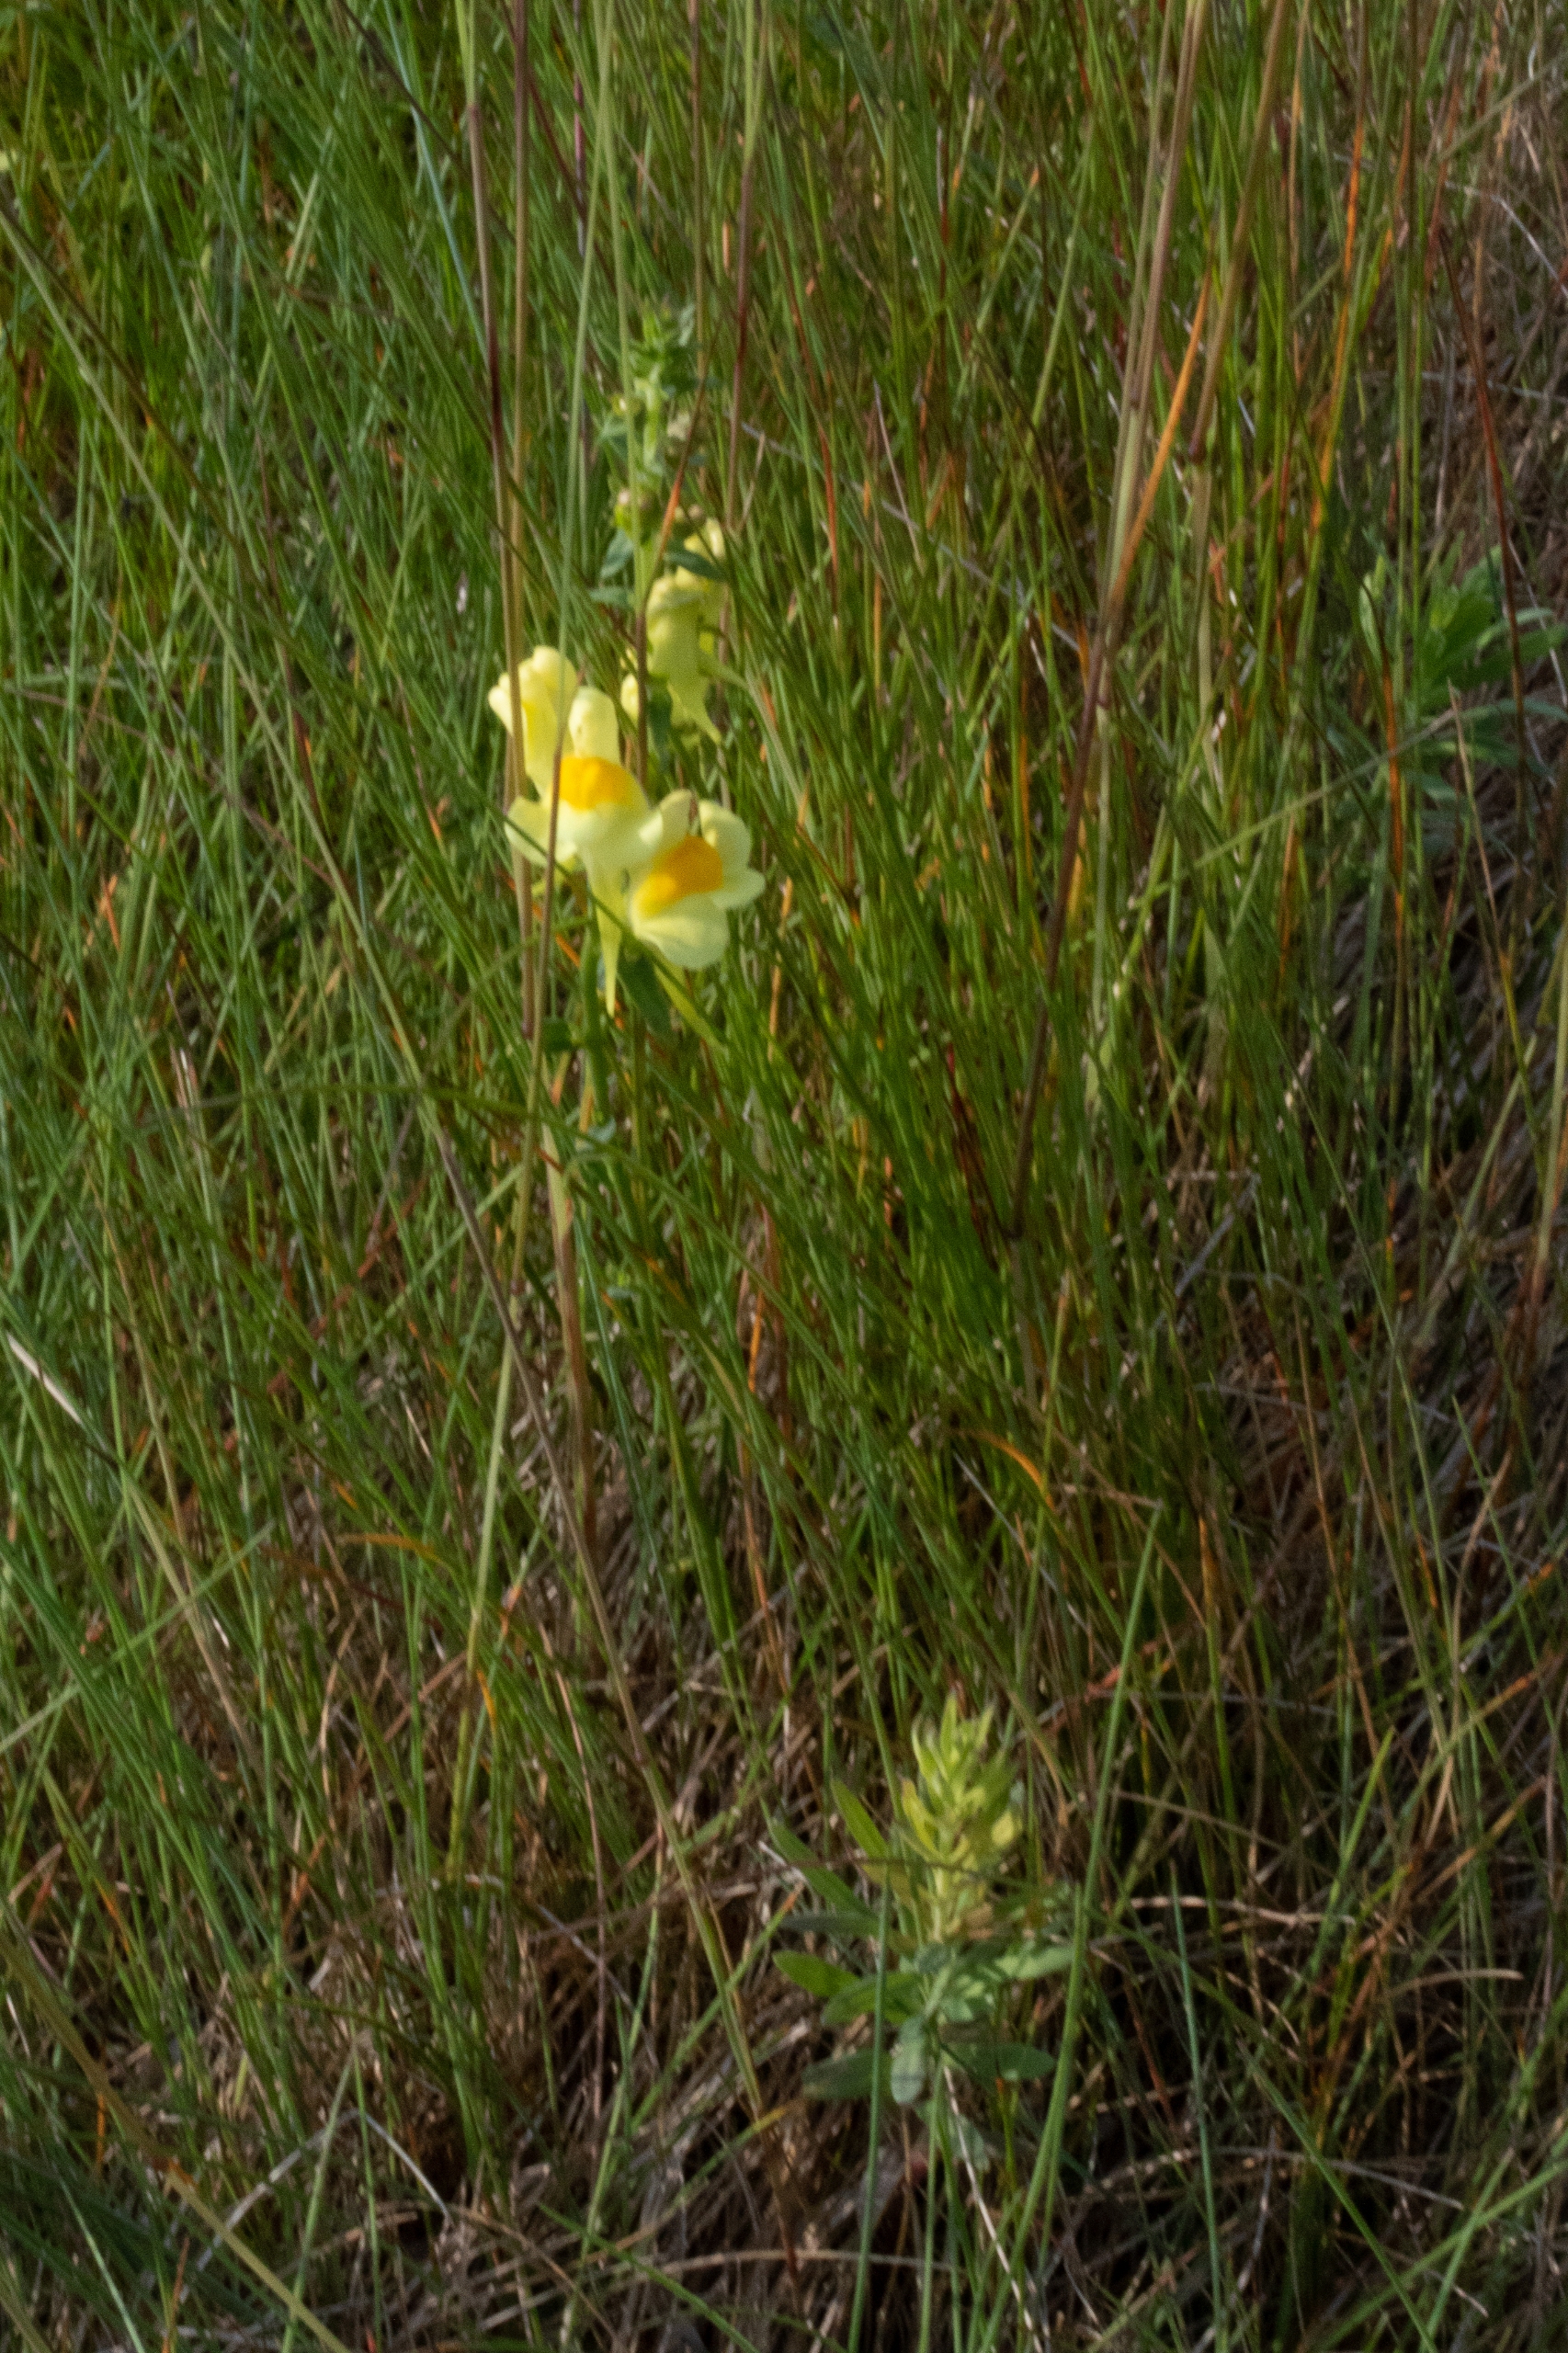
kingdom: Plantae
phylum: Tracheophyta
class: Magnoliopsida
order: Lamiales
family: Plantaginaceae
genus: Linaria
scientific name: Linaria vulgaris
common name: Almindelig torskemund
